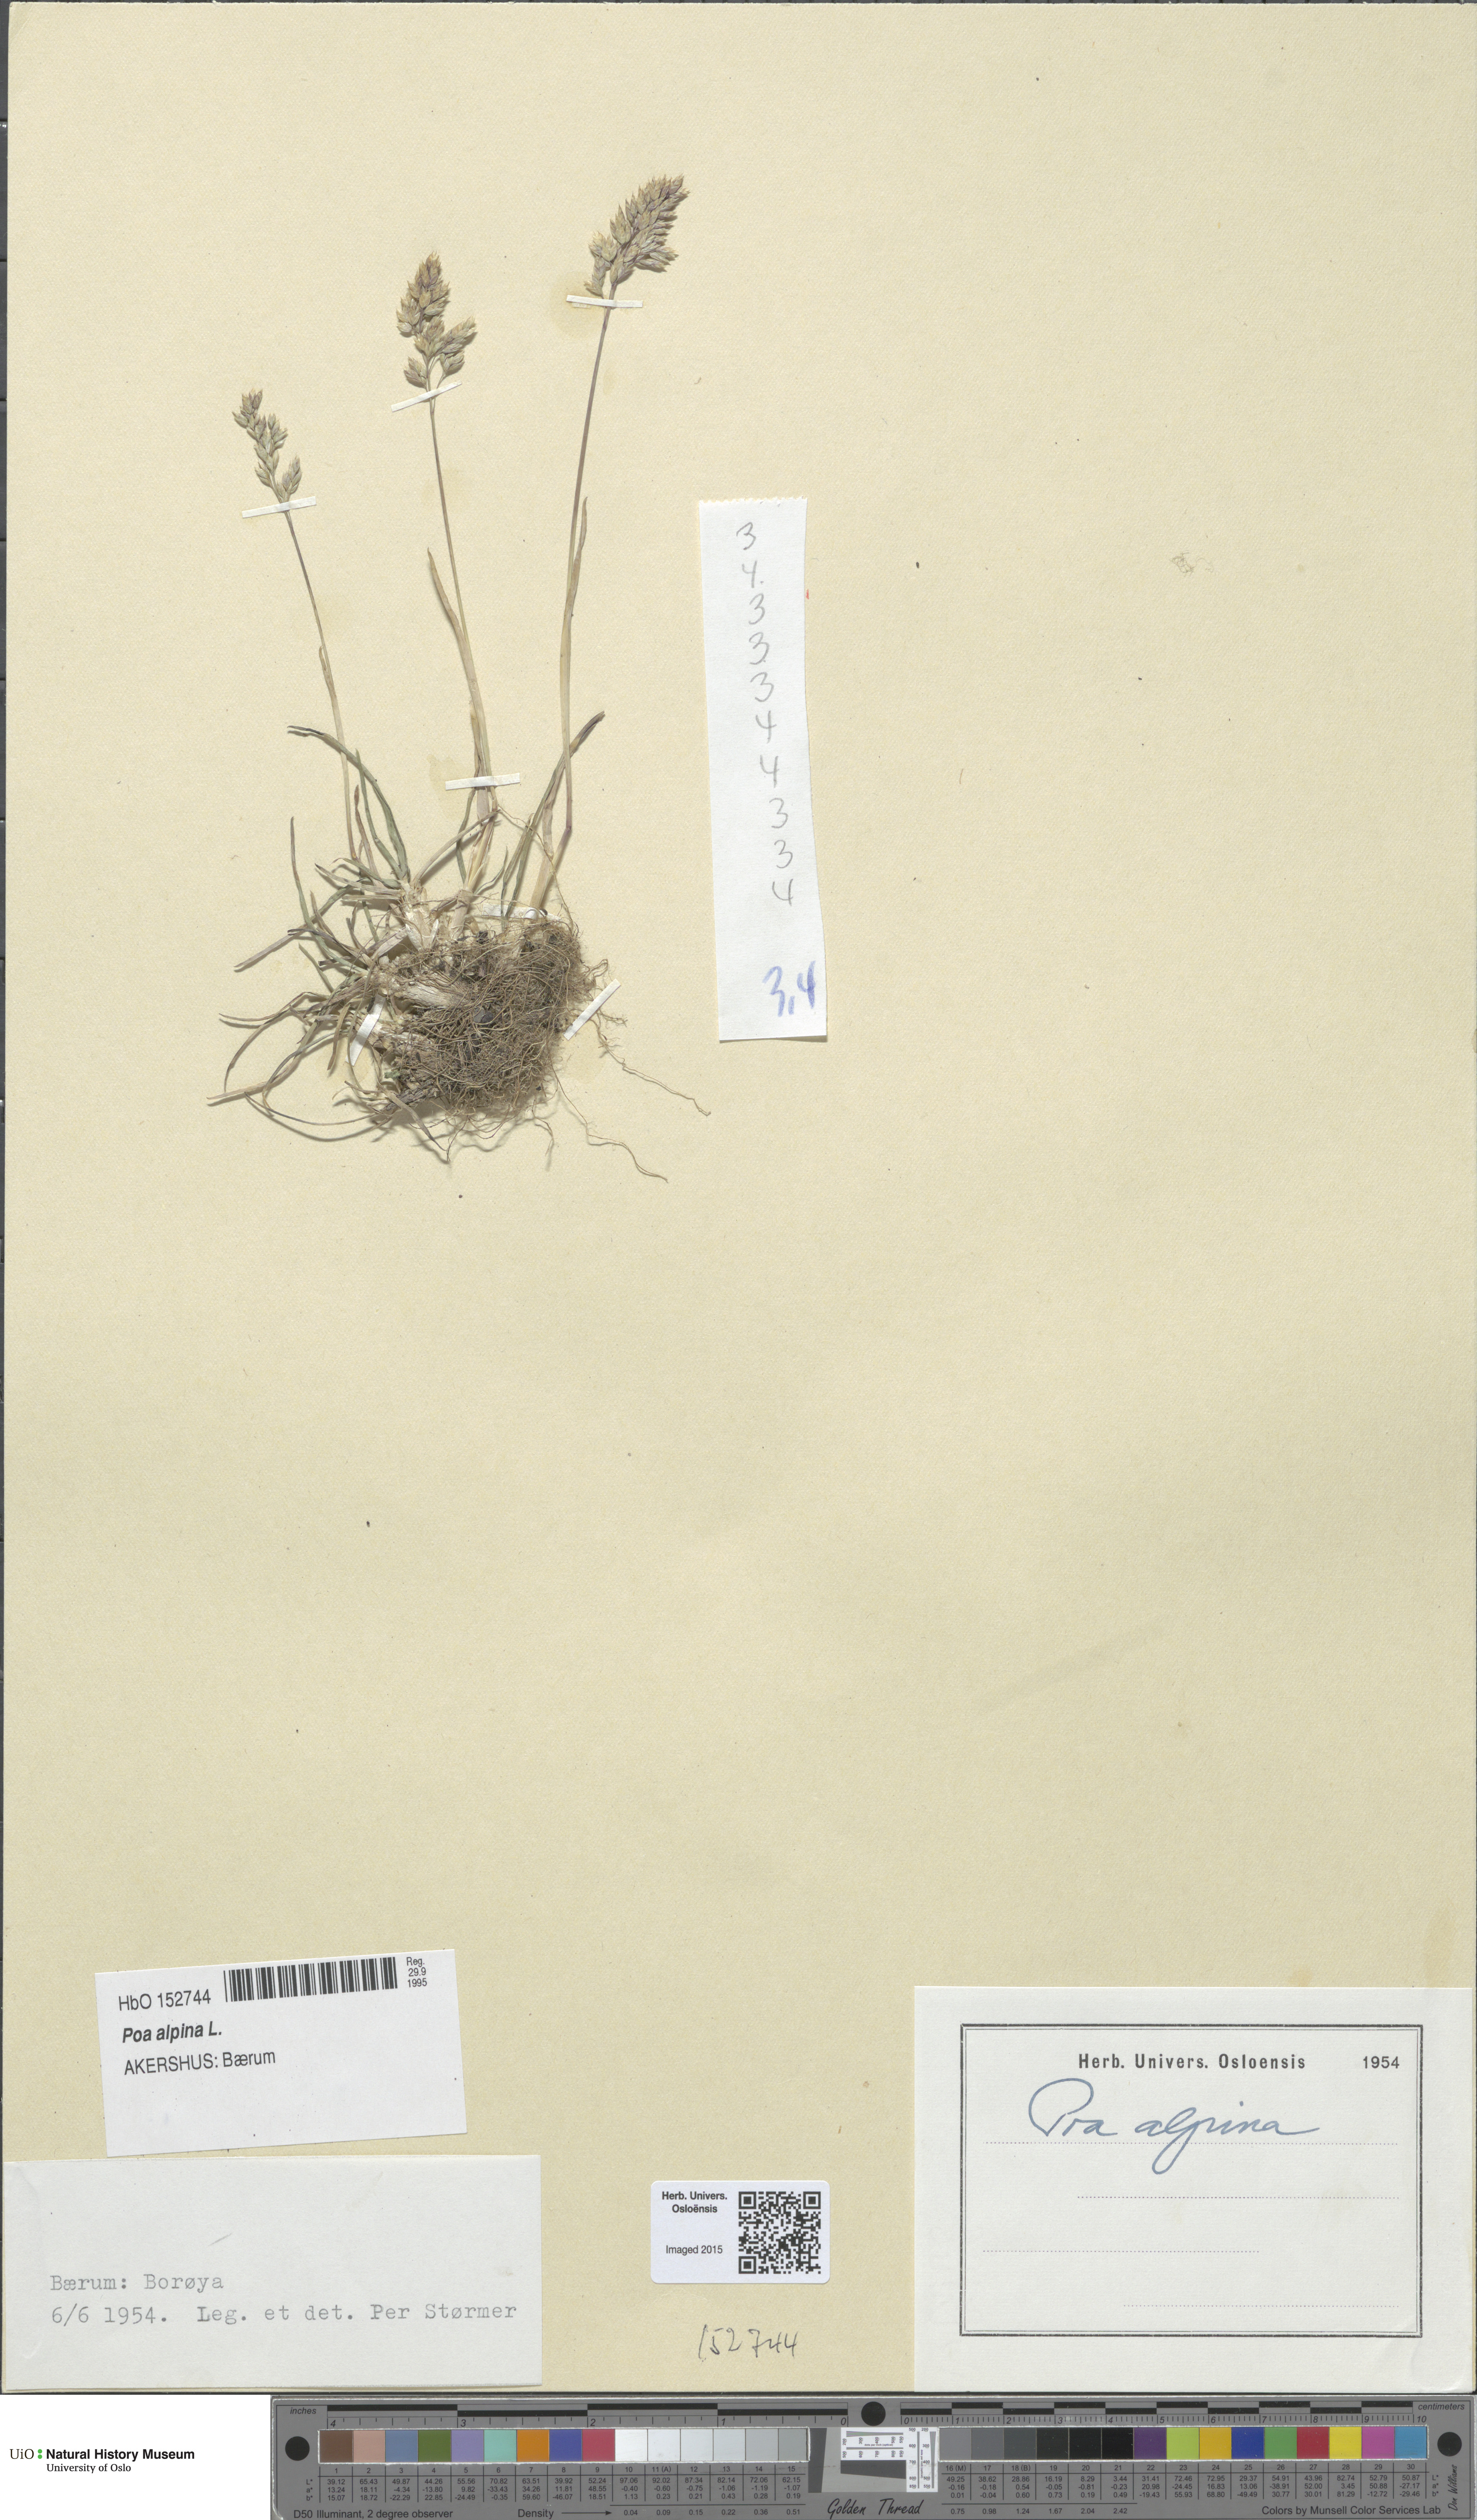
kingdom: Plantae
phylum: Tracheophyta
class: Liliopsida
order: Poales
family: Poaceae
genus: Poa
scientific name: Poa alpina
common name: Alpine bluegrass
